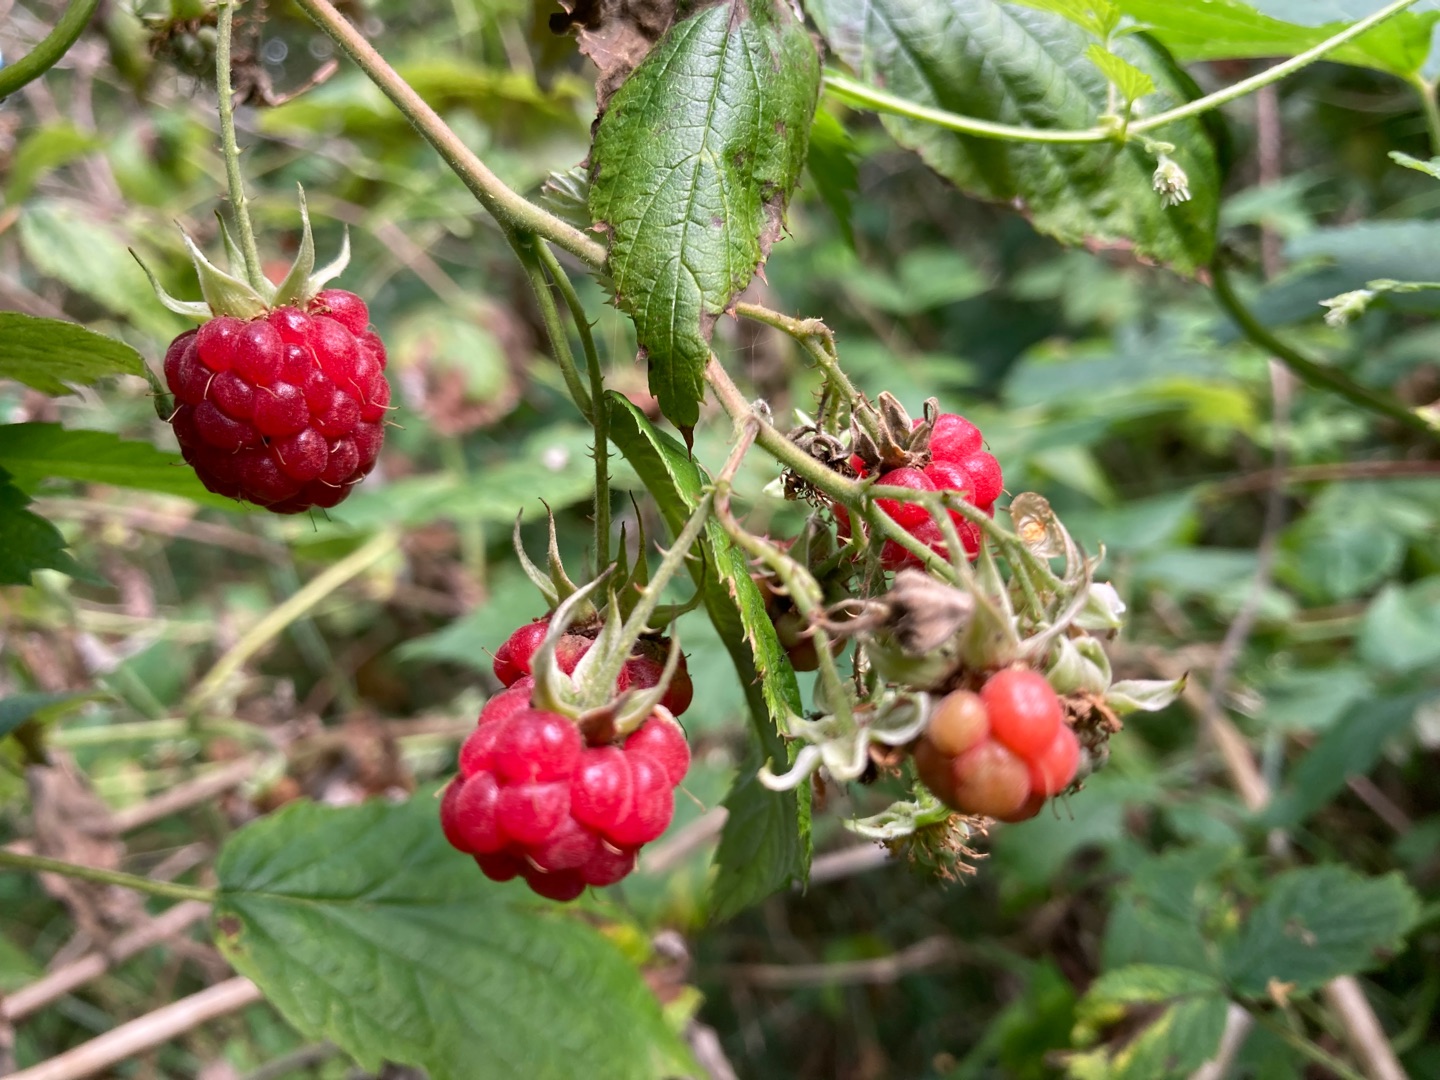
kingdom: Plantae
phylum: Tracheophyta
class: Magnoliopsida
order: Rosales
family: Rosaceae
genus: Rubus
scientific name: Rubus idaeus
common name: Hindbær
